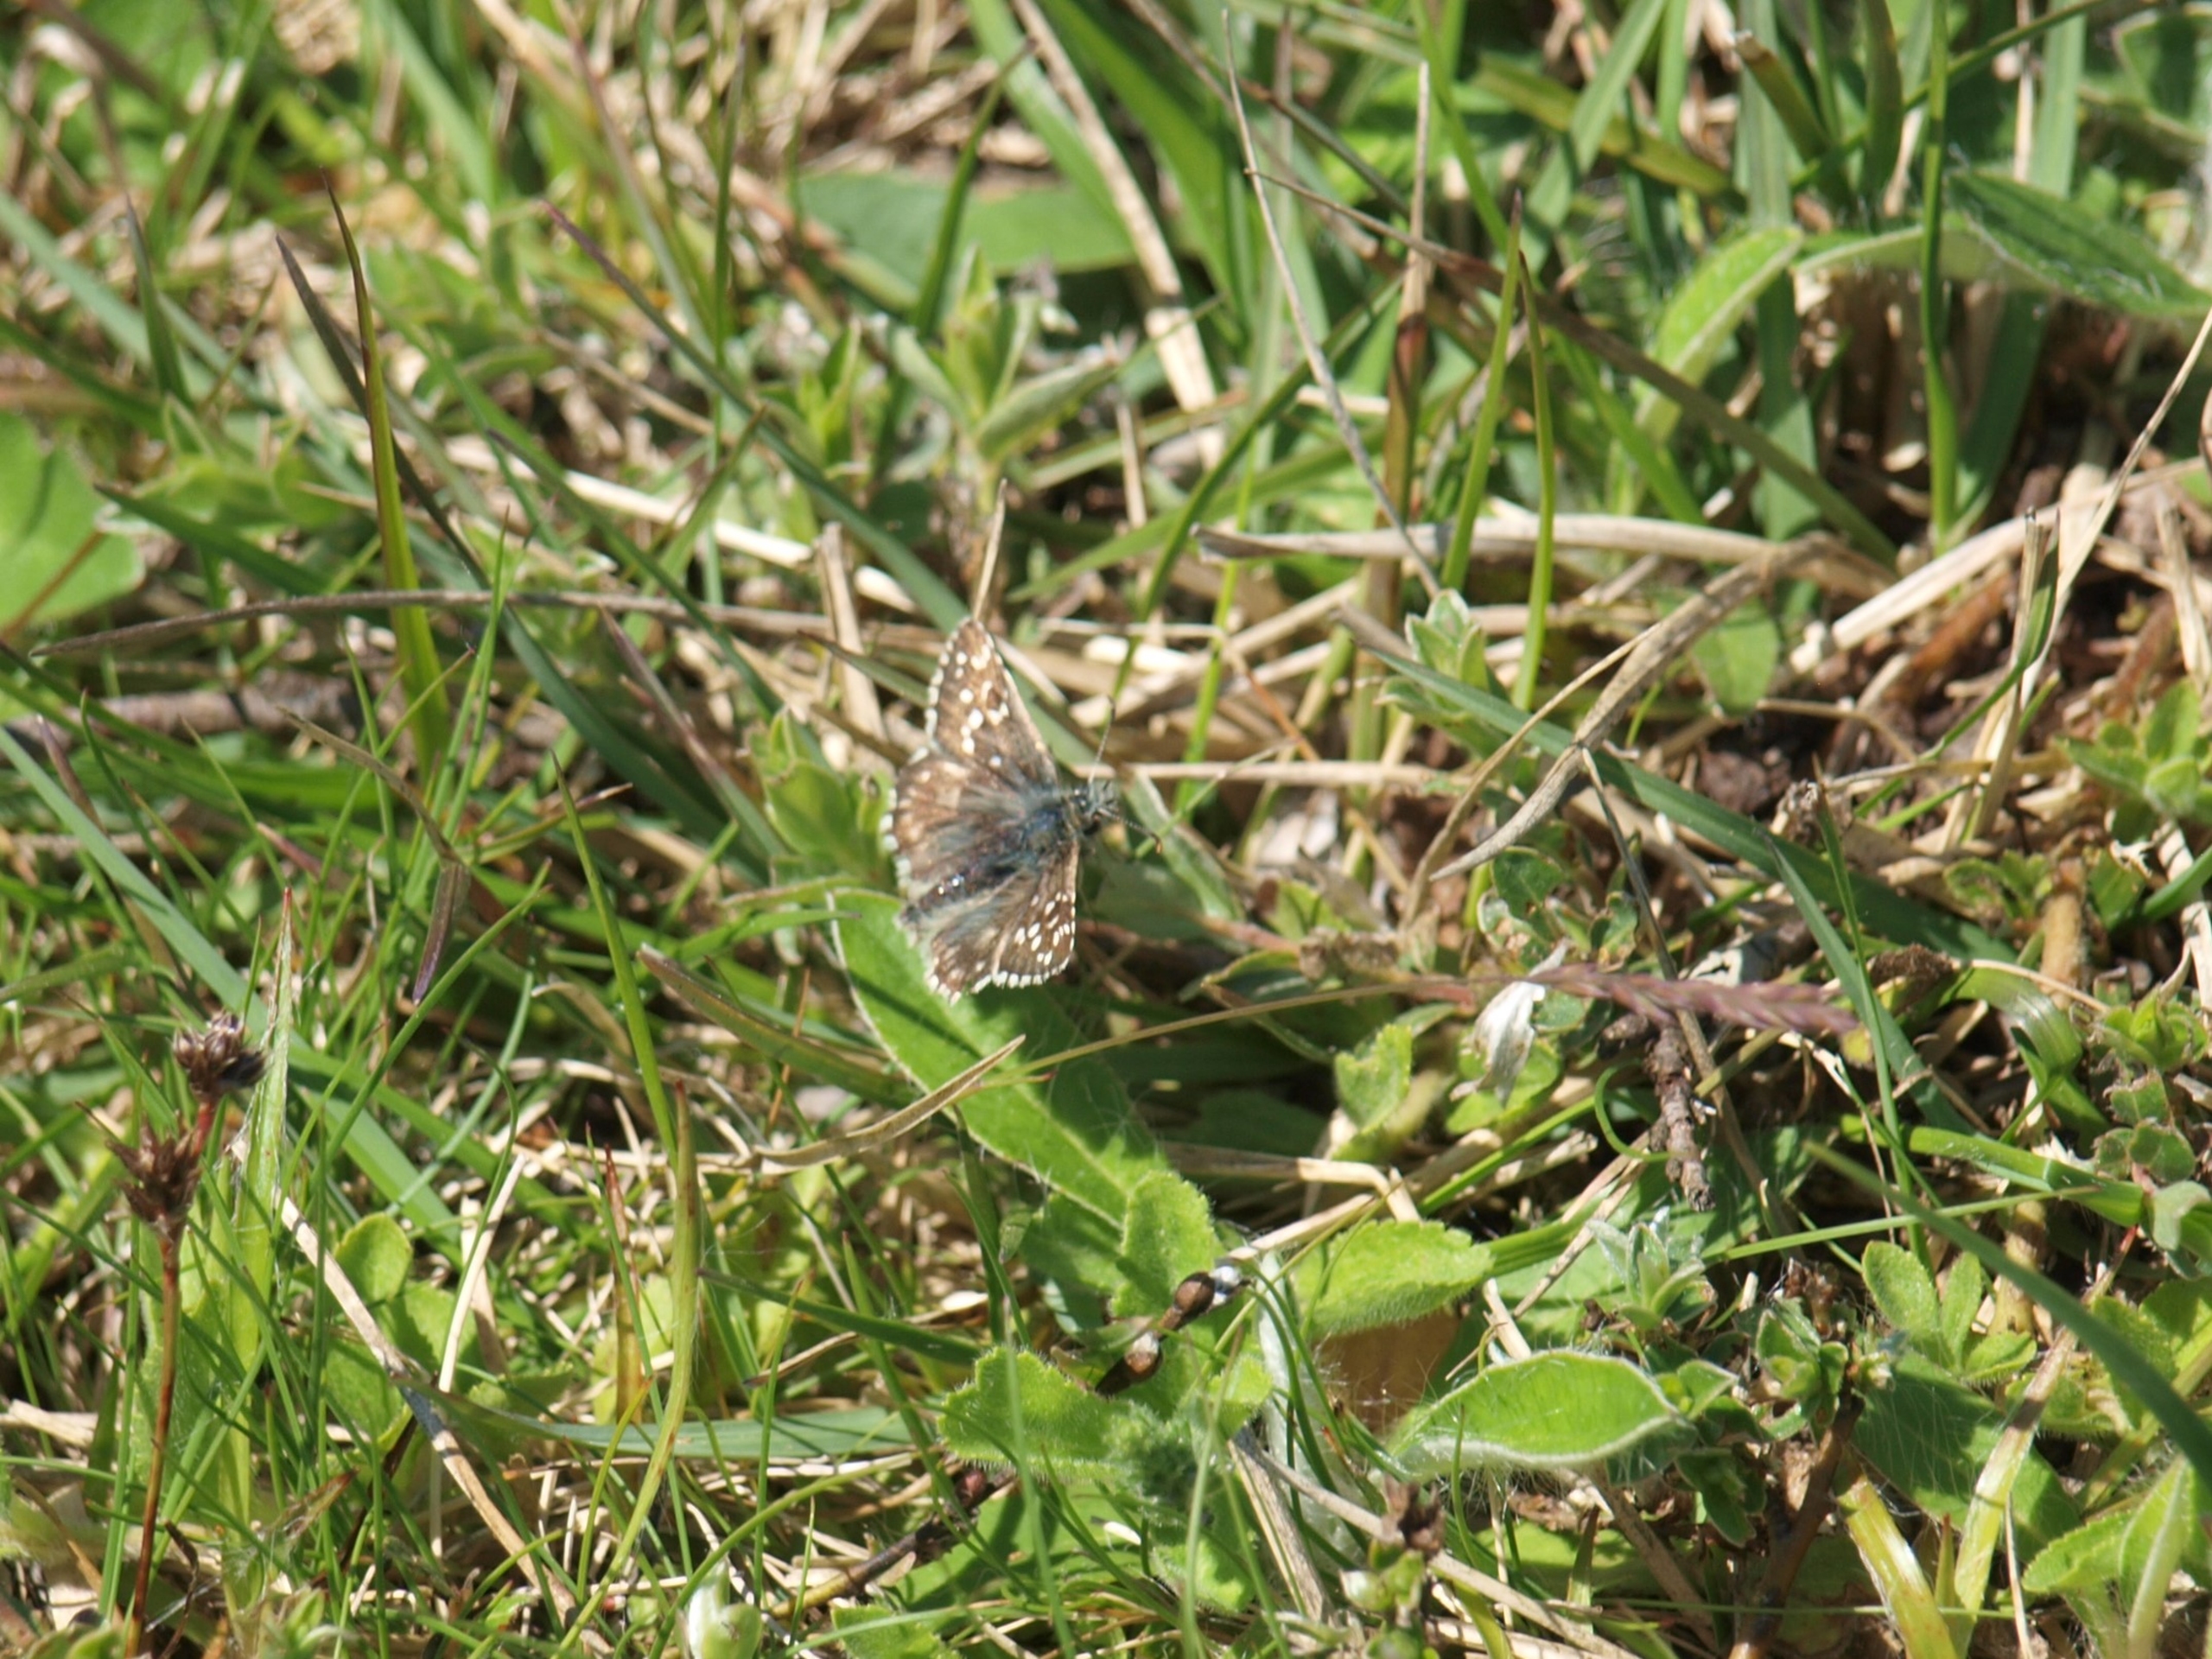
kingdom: Animalia
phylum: Arthropoda
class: Insecta
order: Lepidoptera
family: Hesperiidae
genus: Pyrgus
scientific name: Pyrgus armoricanus
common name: Fransk bredpande
